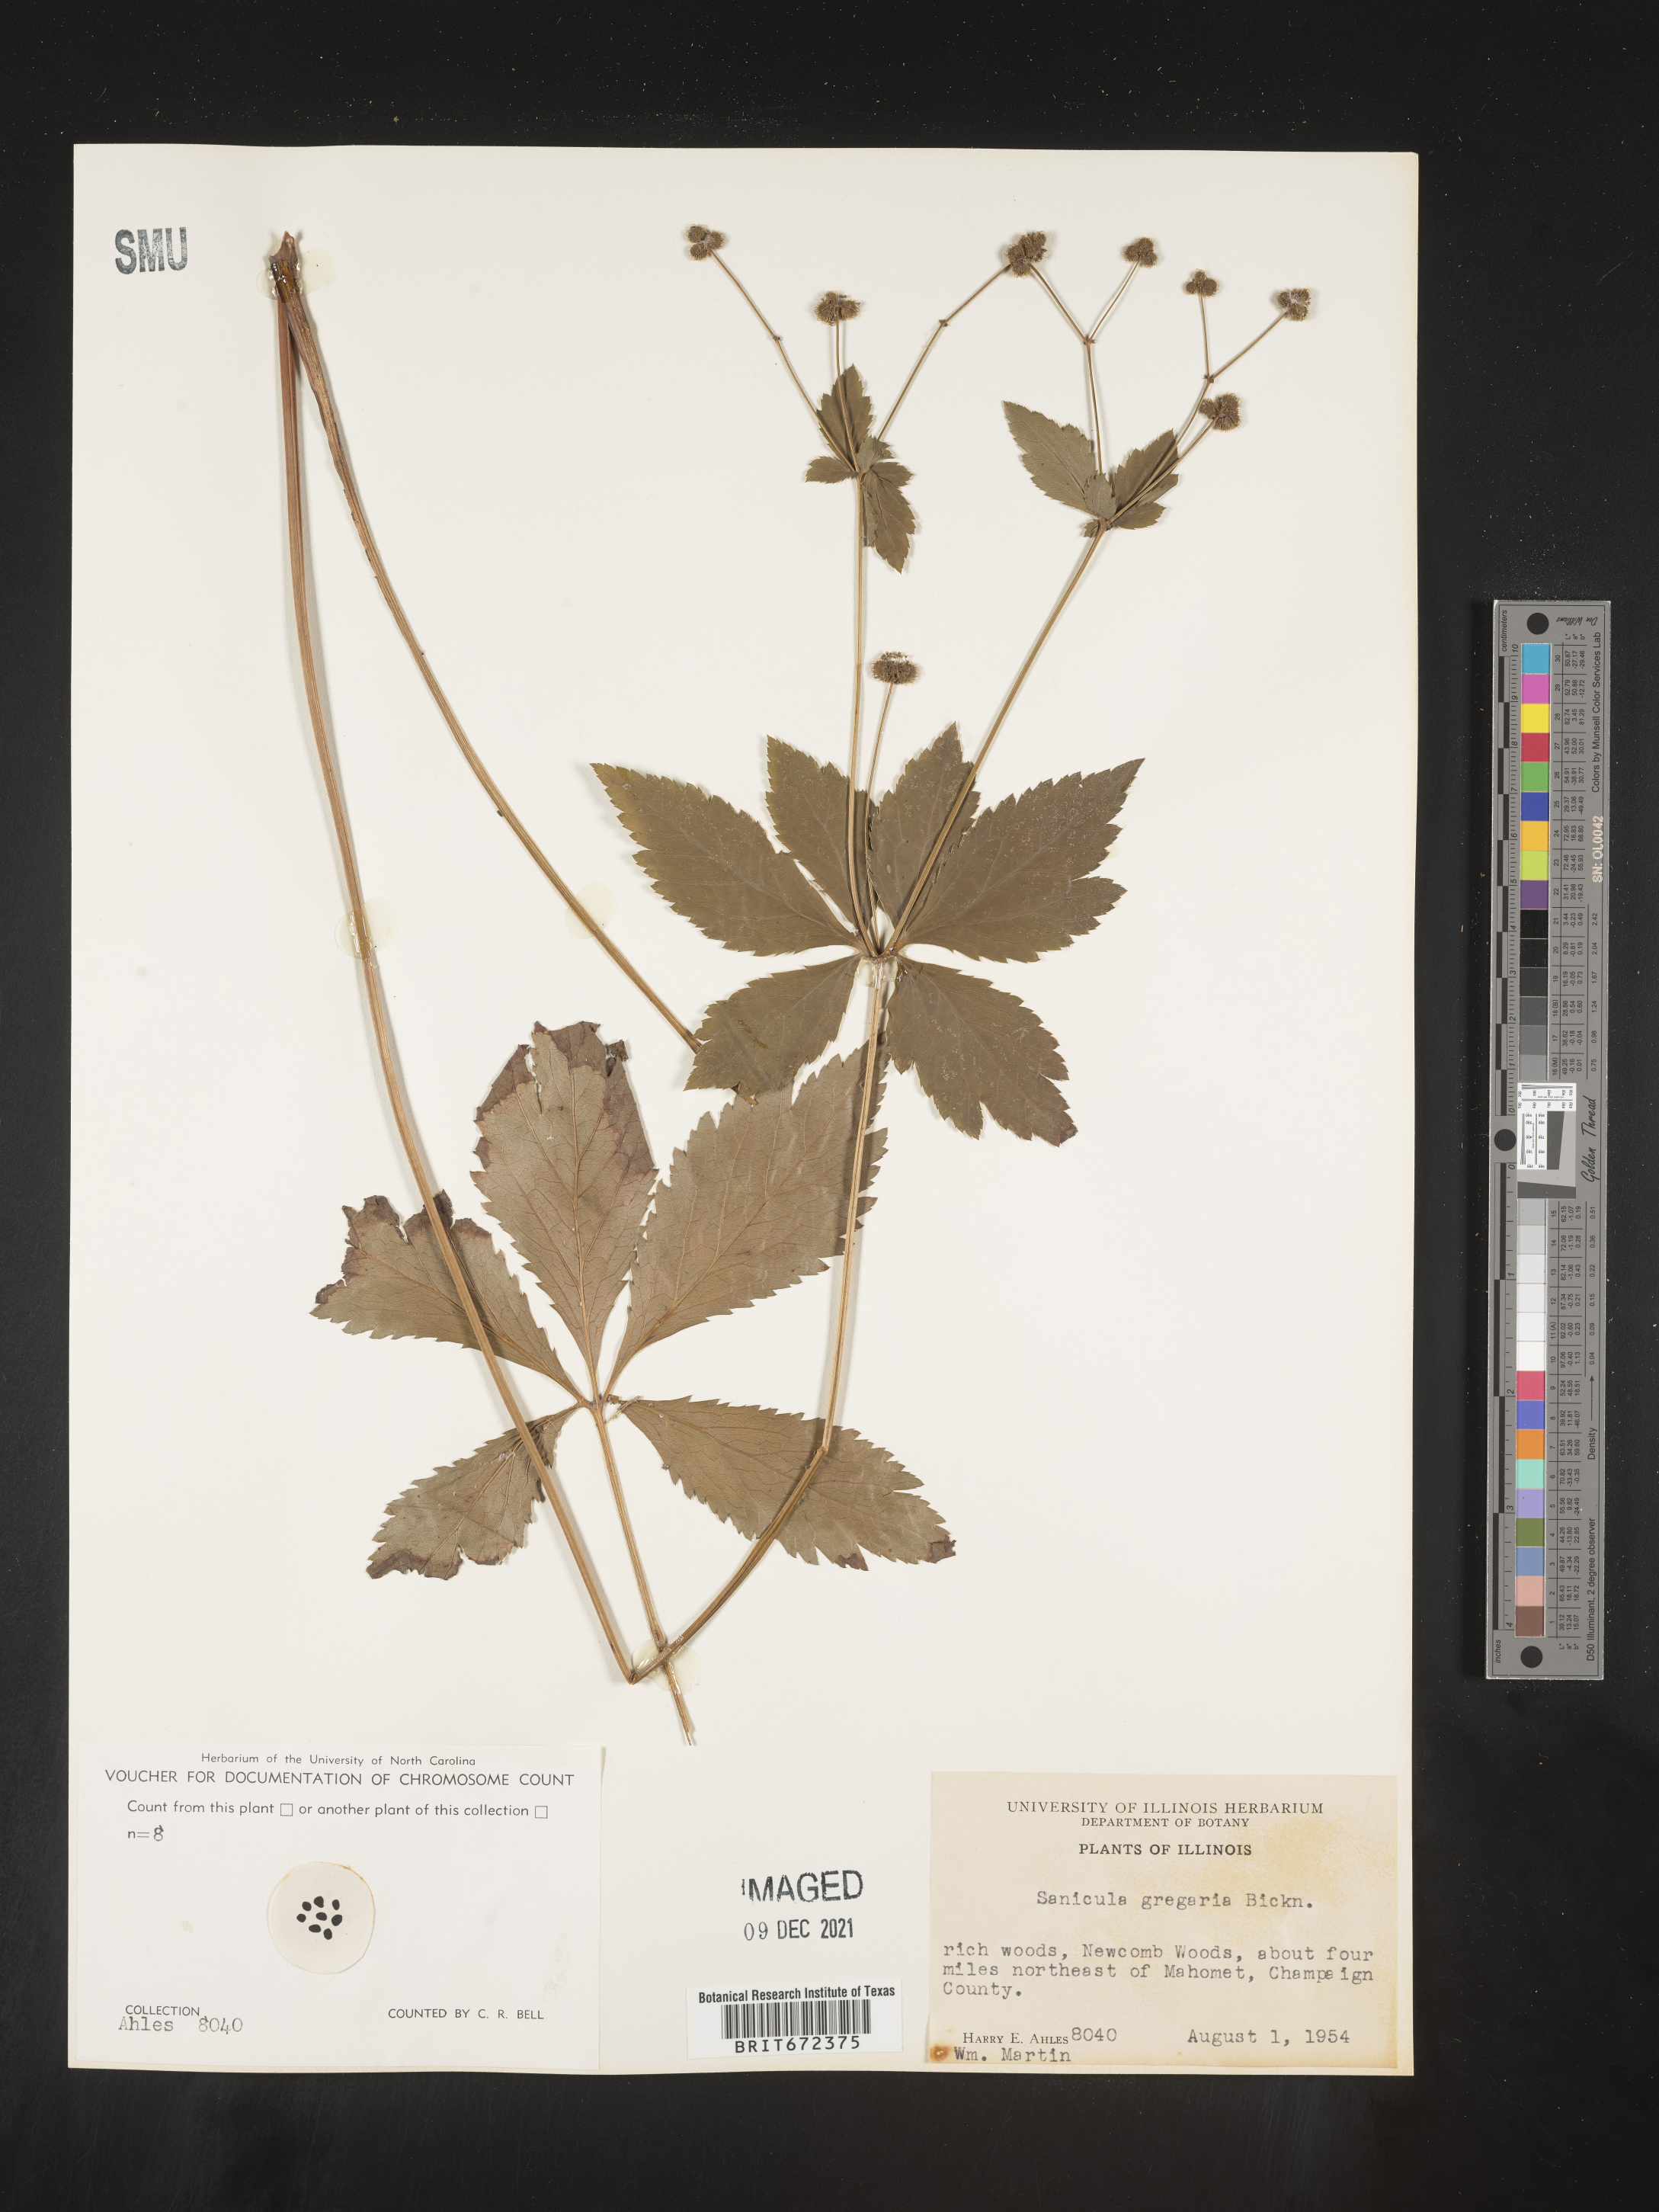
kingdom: Plantae
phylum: Tracheophyta
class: Magnoliopsida
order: Apiales
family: Apiaceae
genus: Sanicula
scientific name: Sanicula odorata
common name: Cluster sanicle
